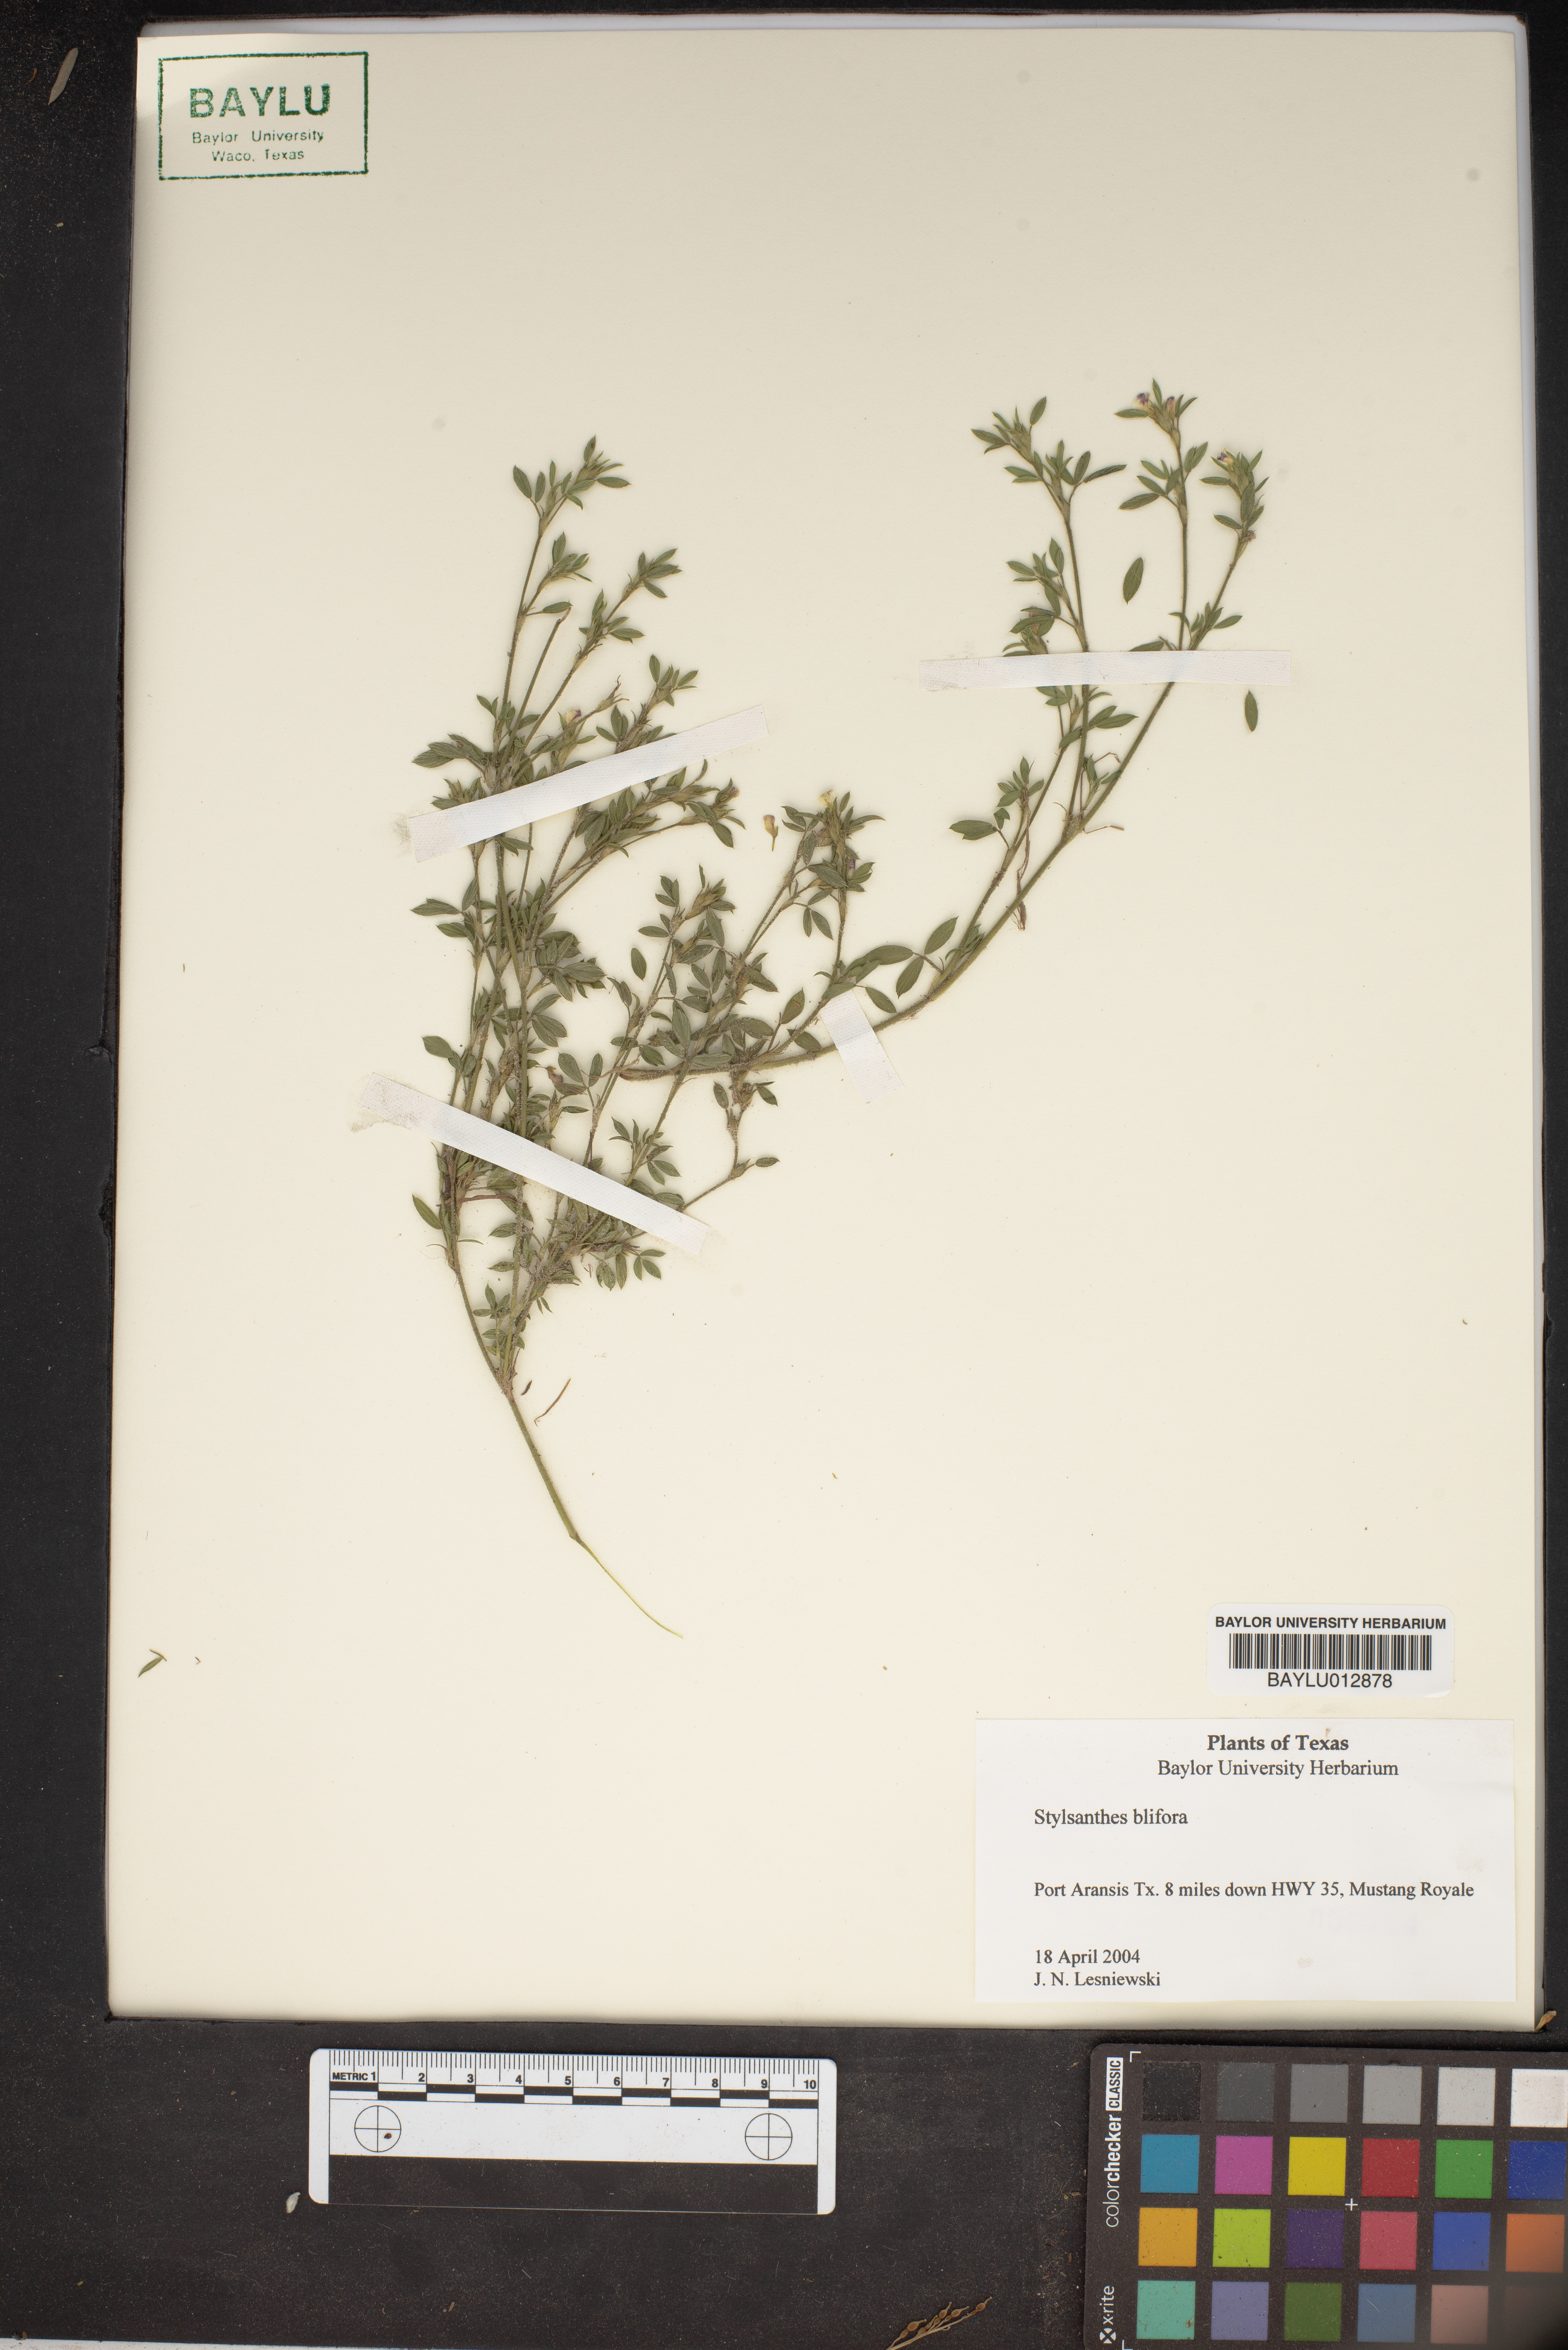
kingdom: Plantae
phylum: Tracheophyta
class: Magnoliopsida
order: Fabales
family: Fabaceae
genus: Stylosanthes
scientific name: Stylosanthes biflora
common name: Two-flower pencil-flower
